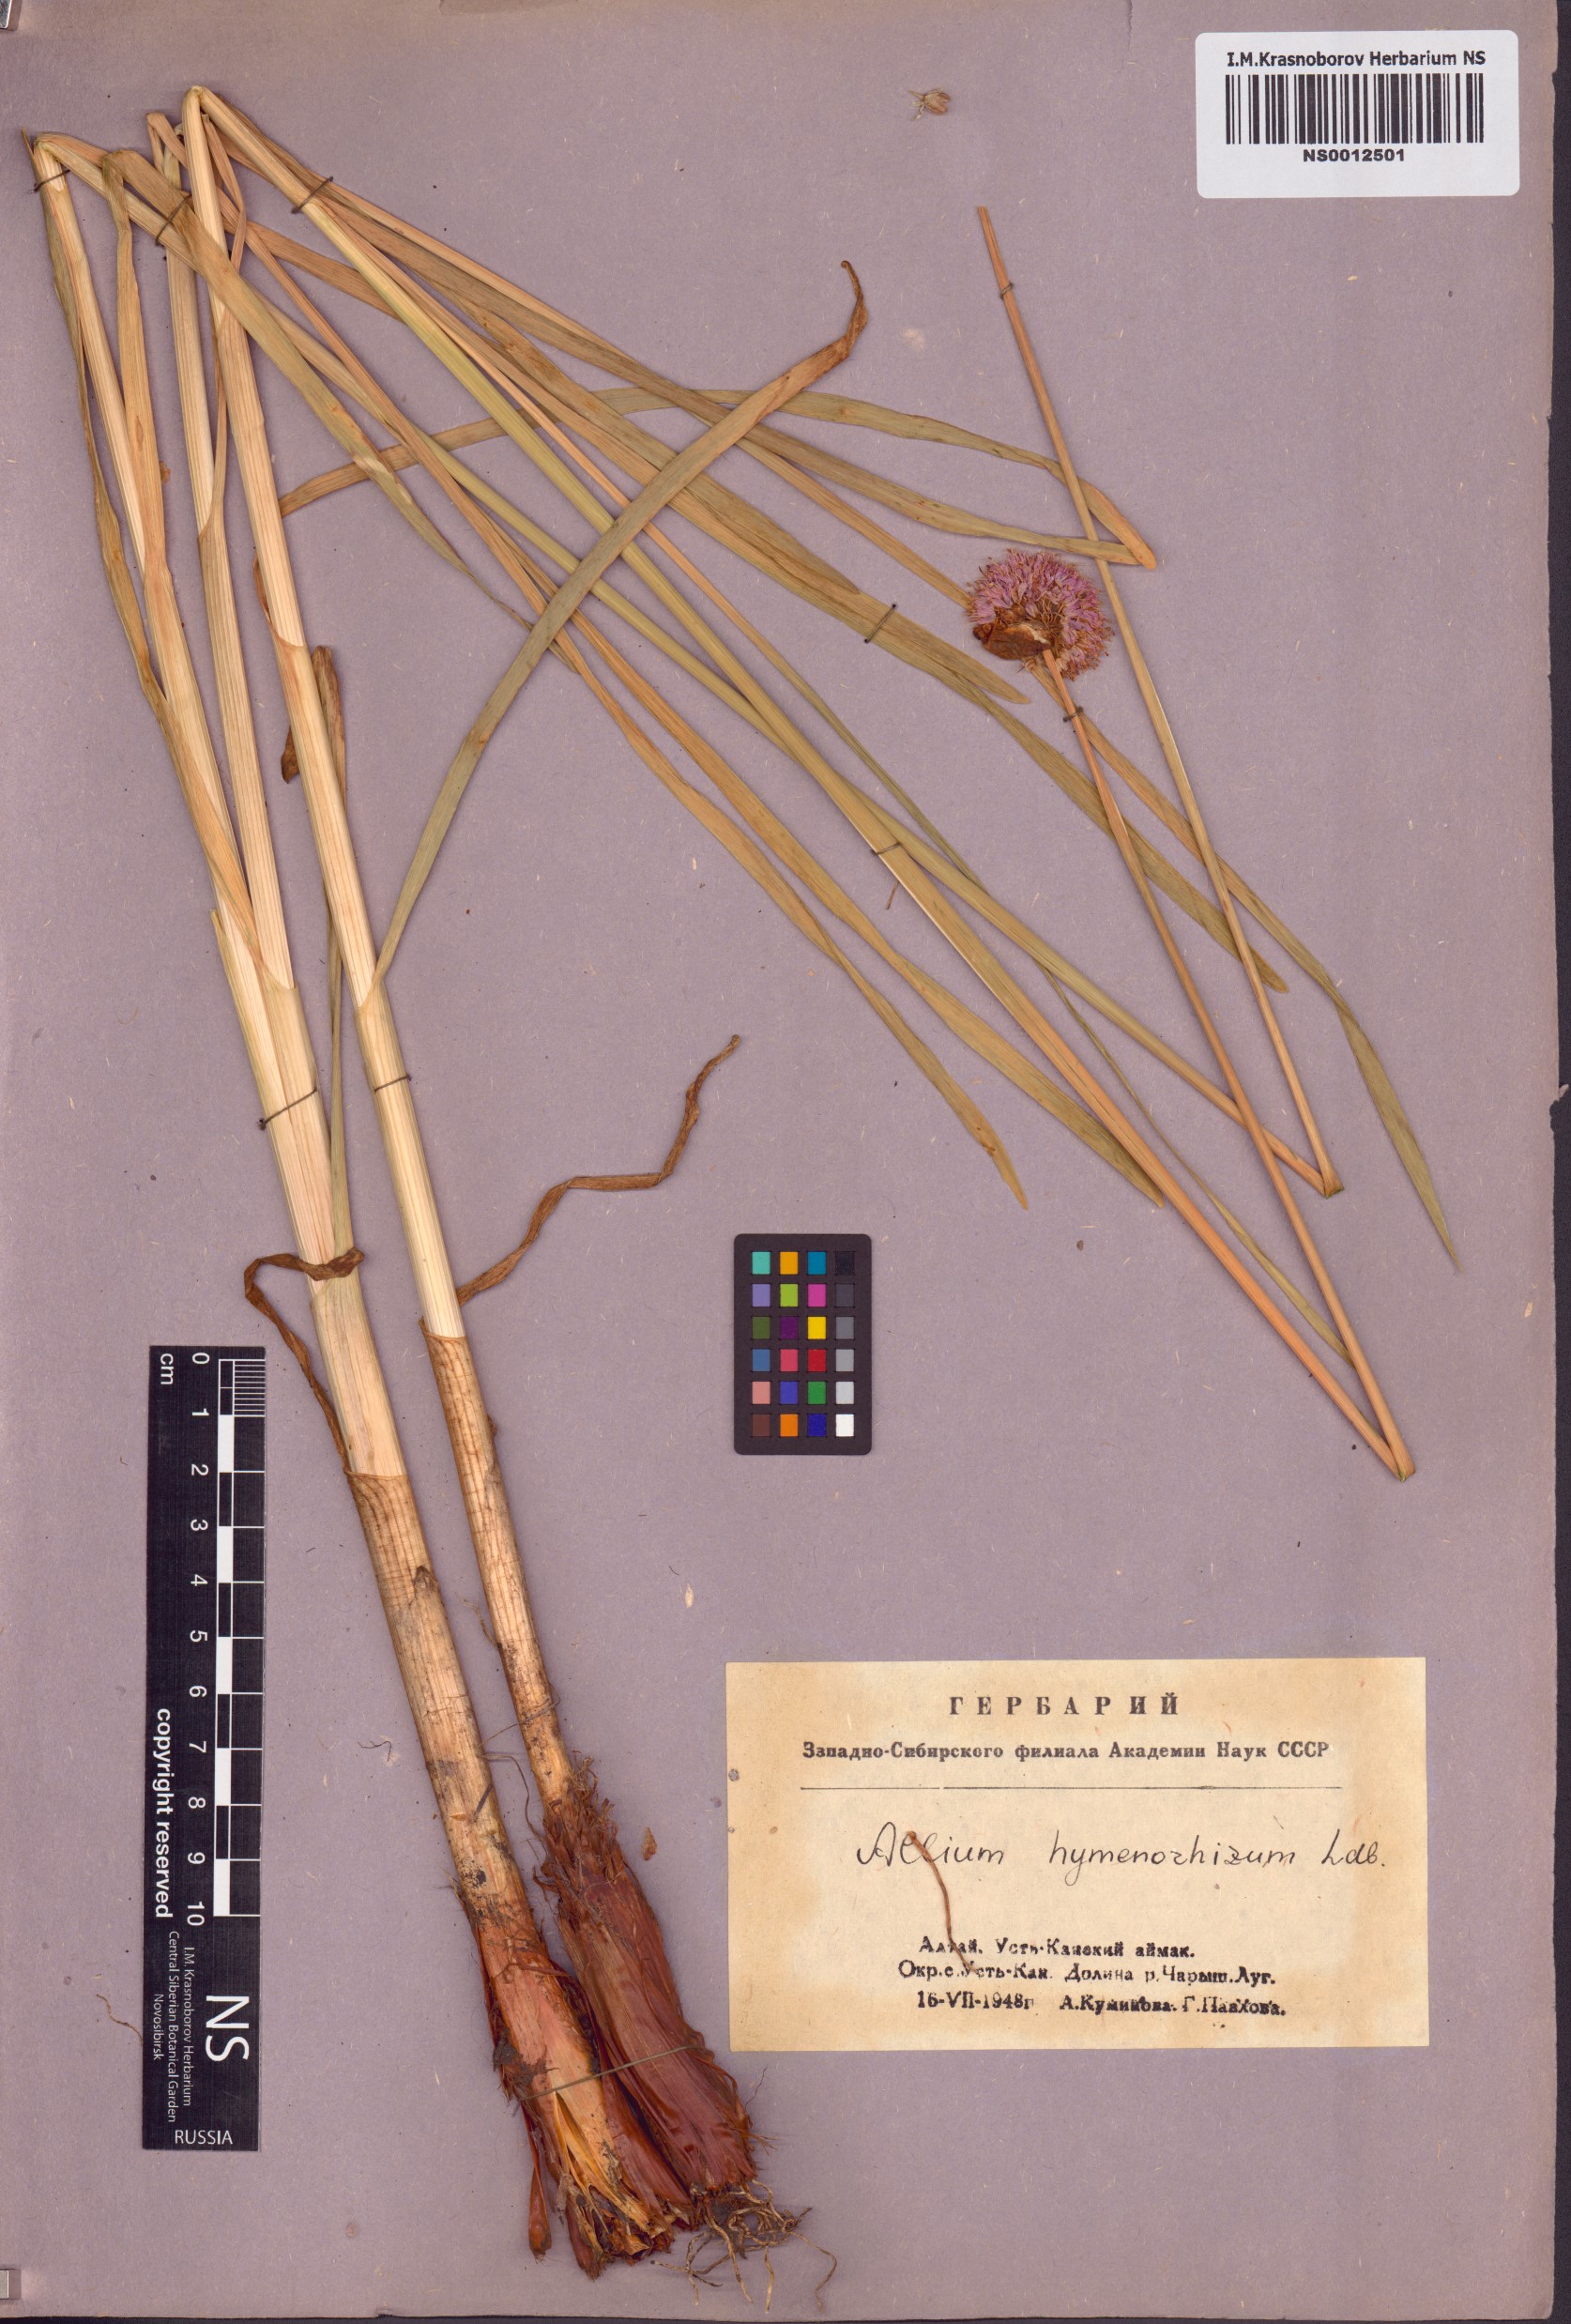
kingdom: Plantae
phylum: Tracheophyta
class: Liliopsida
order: Asparagales
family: Amaryllidaceae
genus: Allium
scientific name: Allium hymenorhizum
